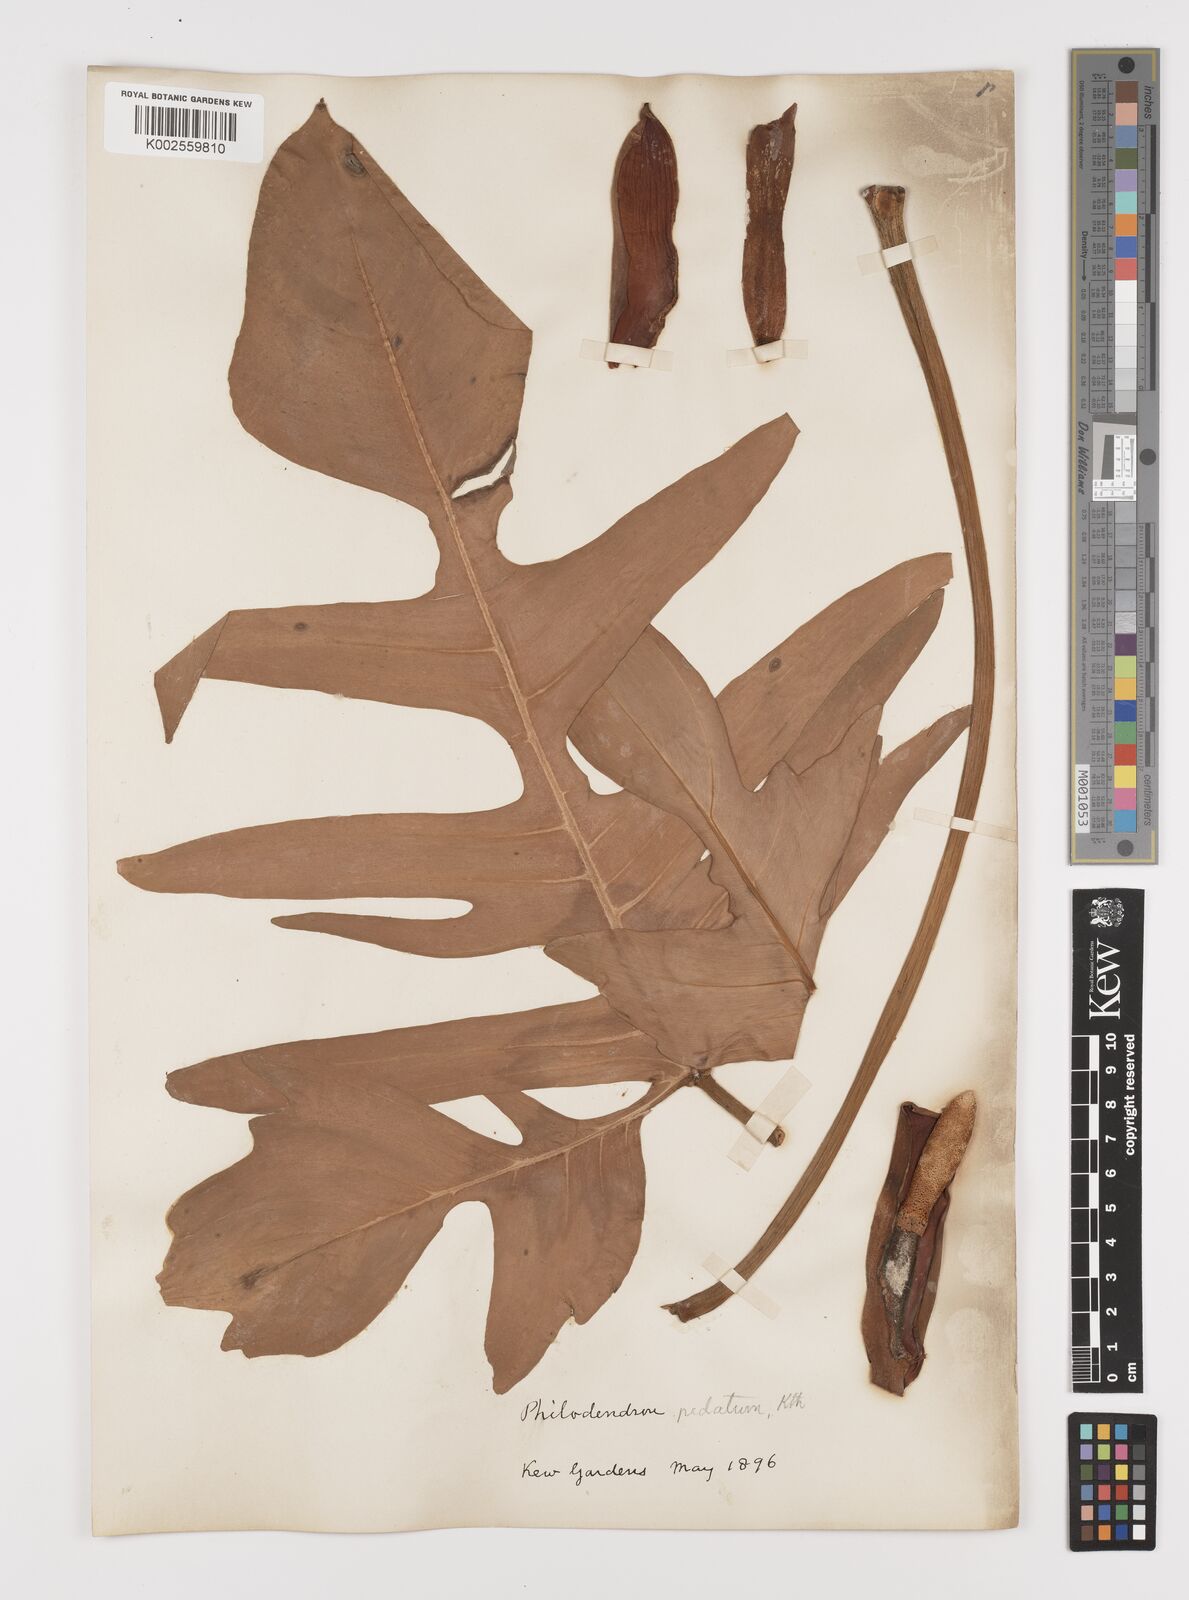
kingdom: Plantae
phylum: Tracheophyta
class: Liliopsida
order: Alismatales
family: Araceae
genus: Philodendron
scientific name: Philodendron pedatum
